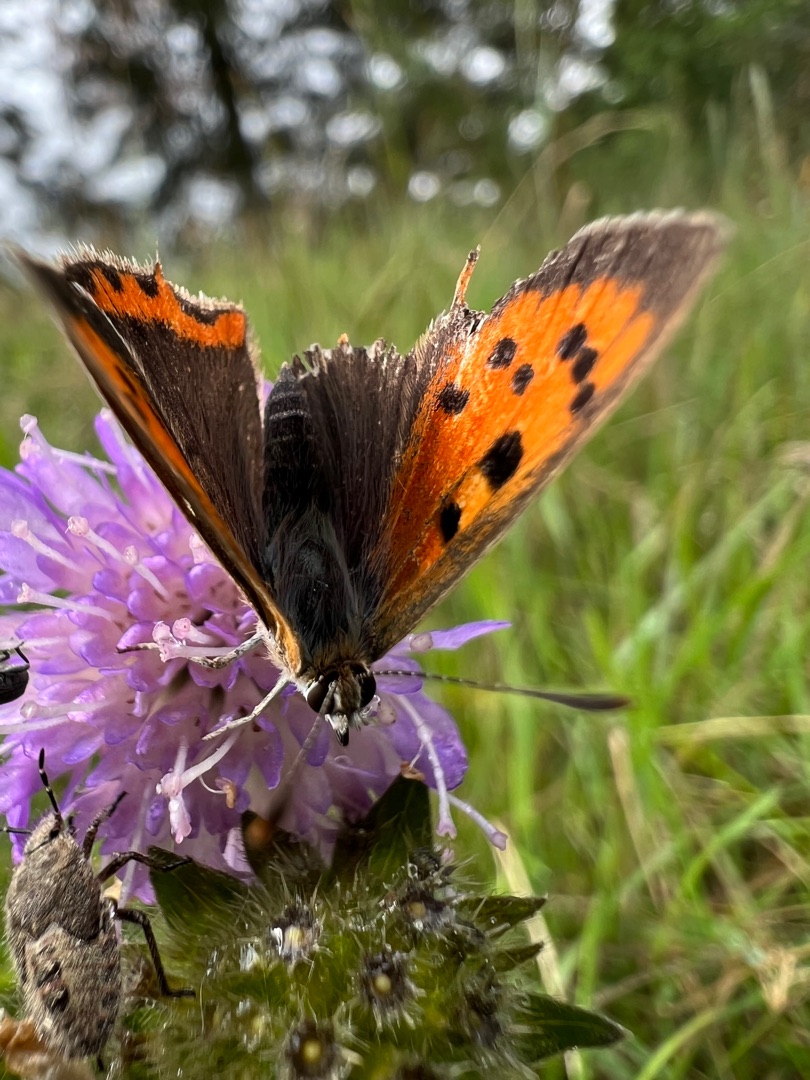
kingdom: Animalia
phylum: Arthropoda
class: Insecta
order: Lepidoptera
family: Lycaenidae
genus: Lycaena
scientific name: Lycaena phlaeas
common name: Lille ildfugl
